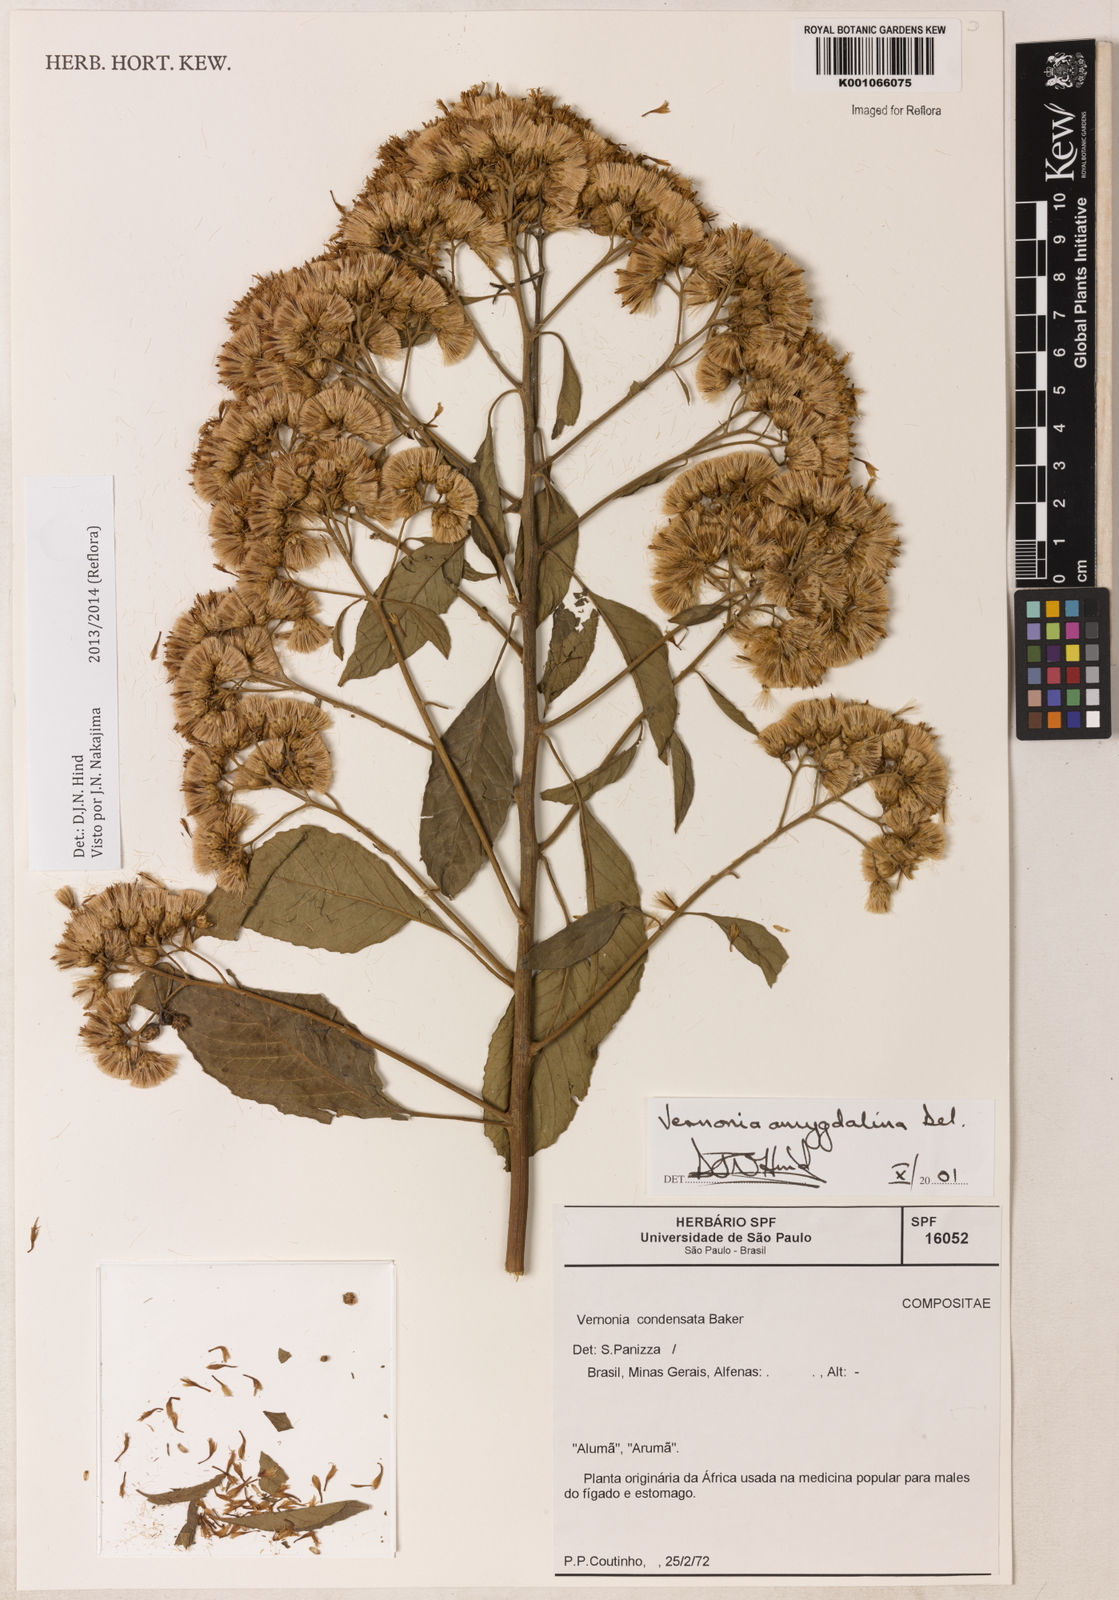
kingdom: Plantae
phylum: Tracheophyta
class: Magnoliopsida
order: Asterales
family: Asteraceae
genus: Gymnanthemum
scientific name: Gymnanthemum amygdalinum
